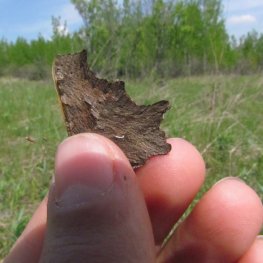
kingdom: Animalia
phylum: Arthropoda
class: Insecta
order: Lepidoptera
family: Nymphalidae
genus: Polygonia
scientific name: Polygonia progne
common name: Gray Comma
